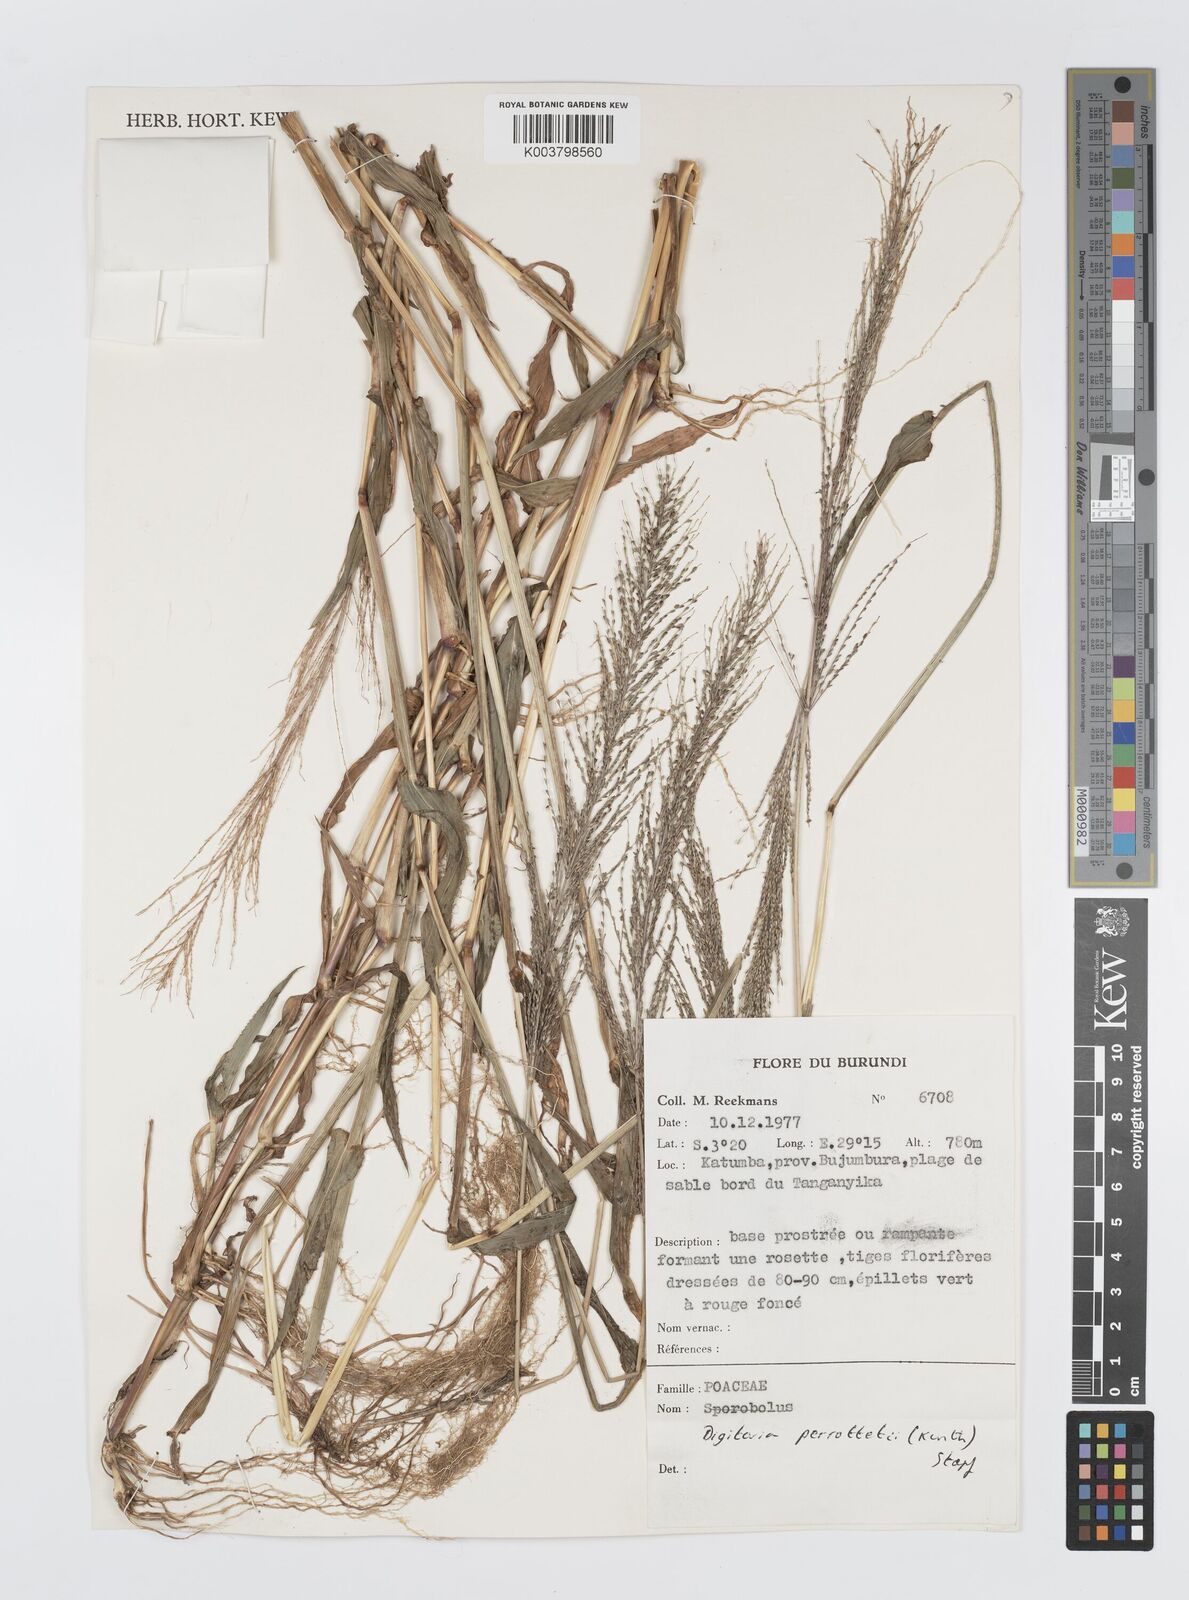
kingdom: Plantae
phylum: Tracheophyta
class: Liliopsida
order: Poales
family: Poaceae
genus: Digitaria
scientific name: Digitaria perrottetii
